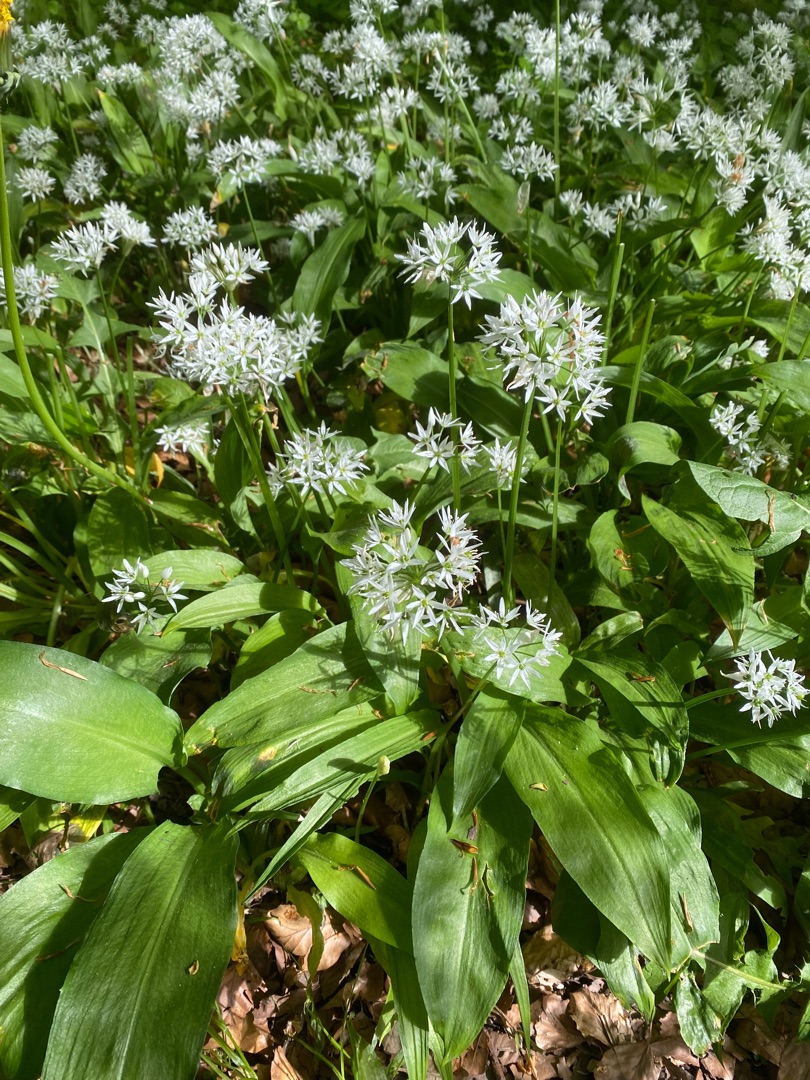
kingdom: Plantae
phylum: Tracheophyta
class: Liliopsida
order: Asparagales
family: Amaryllidaceae
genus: Allium
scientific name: Allium ursinum
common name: Rams-løg
